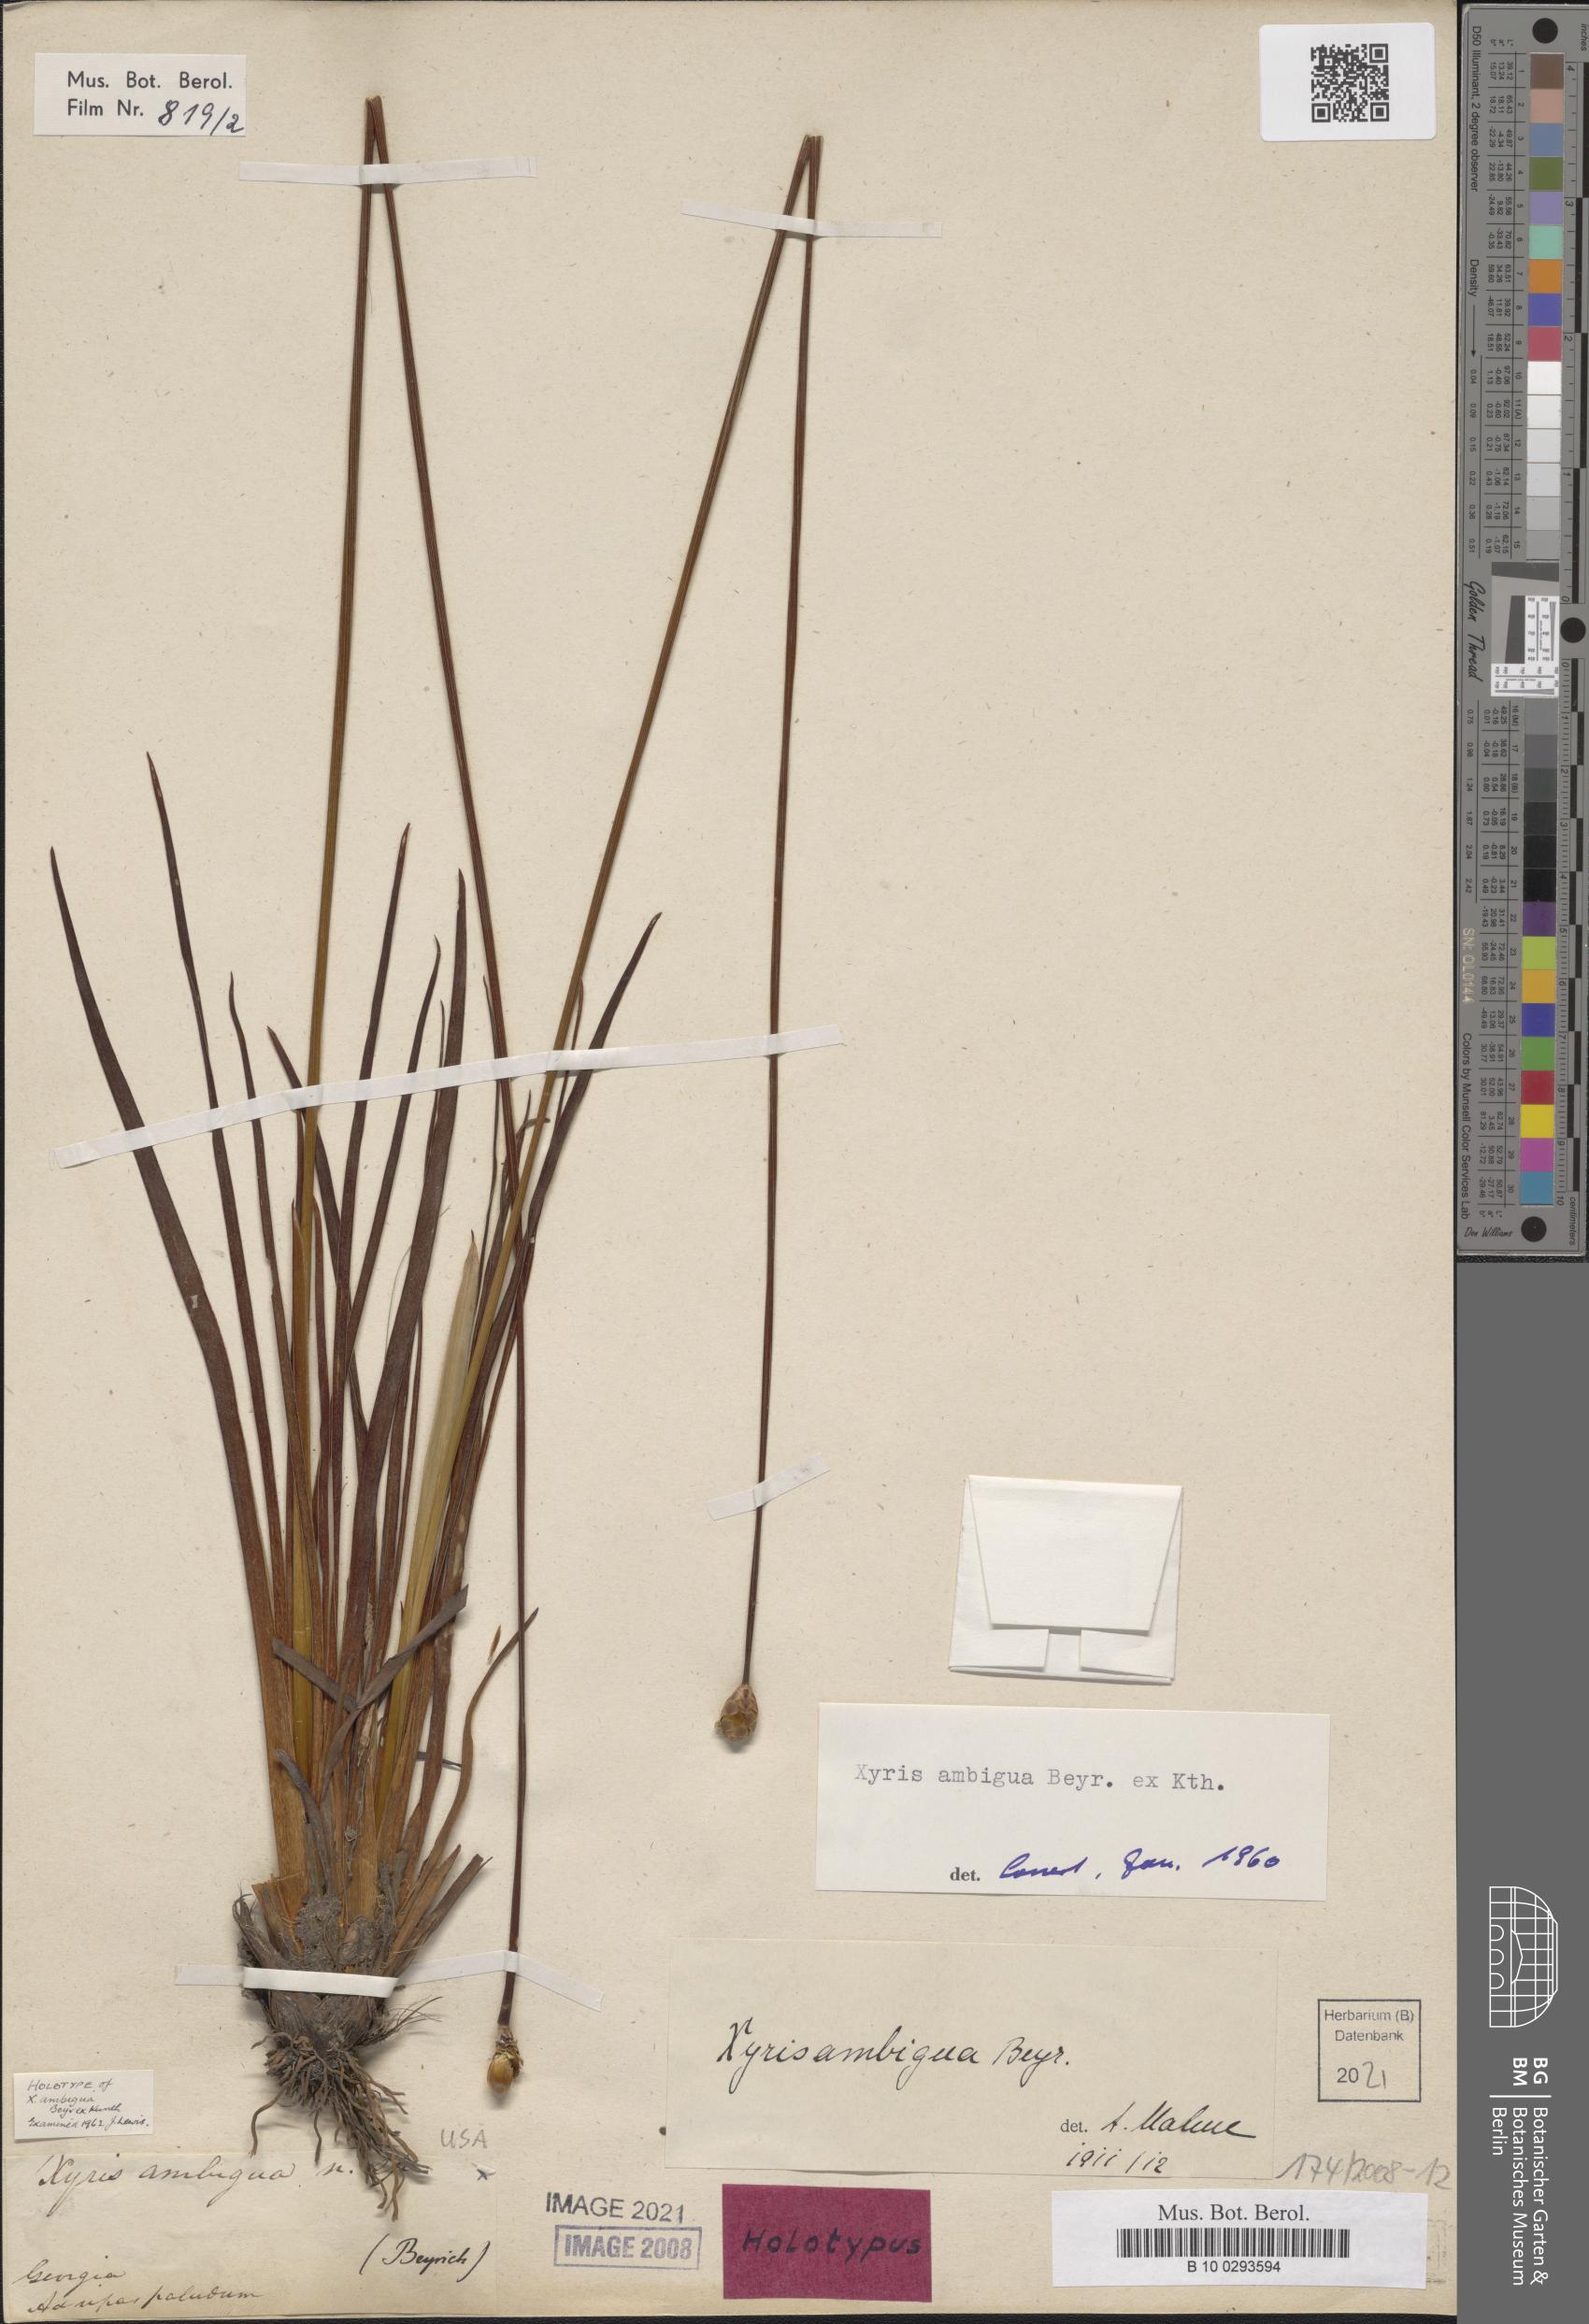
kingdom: Plantae
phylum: Tracheophyta
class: Liliopsida
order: Poales
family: Xyridaceae
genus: Xyris
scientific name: Xyris ambigua
